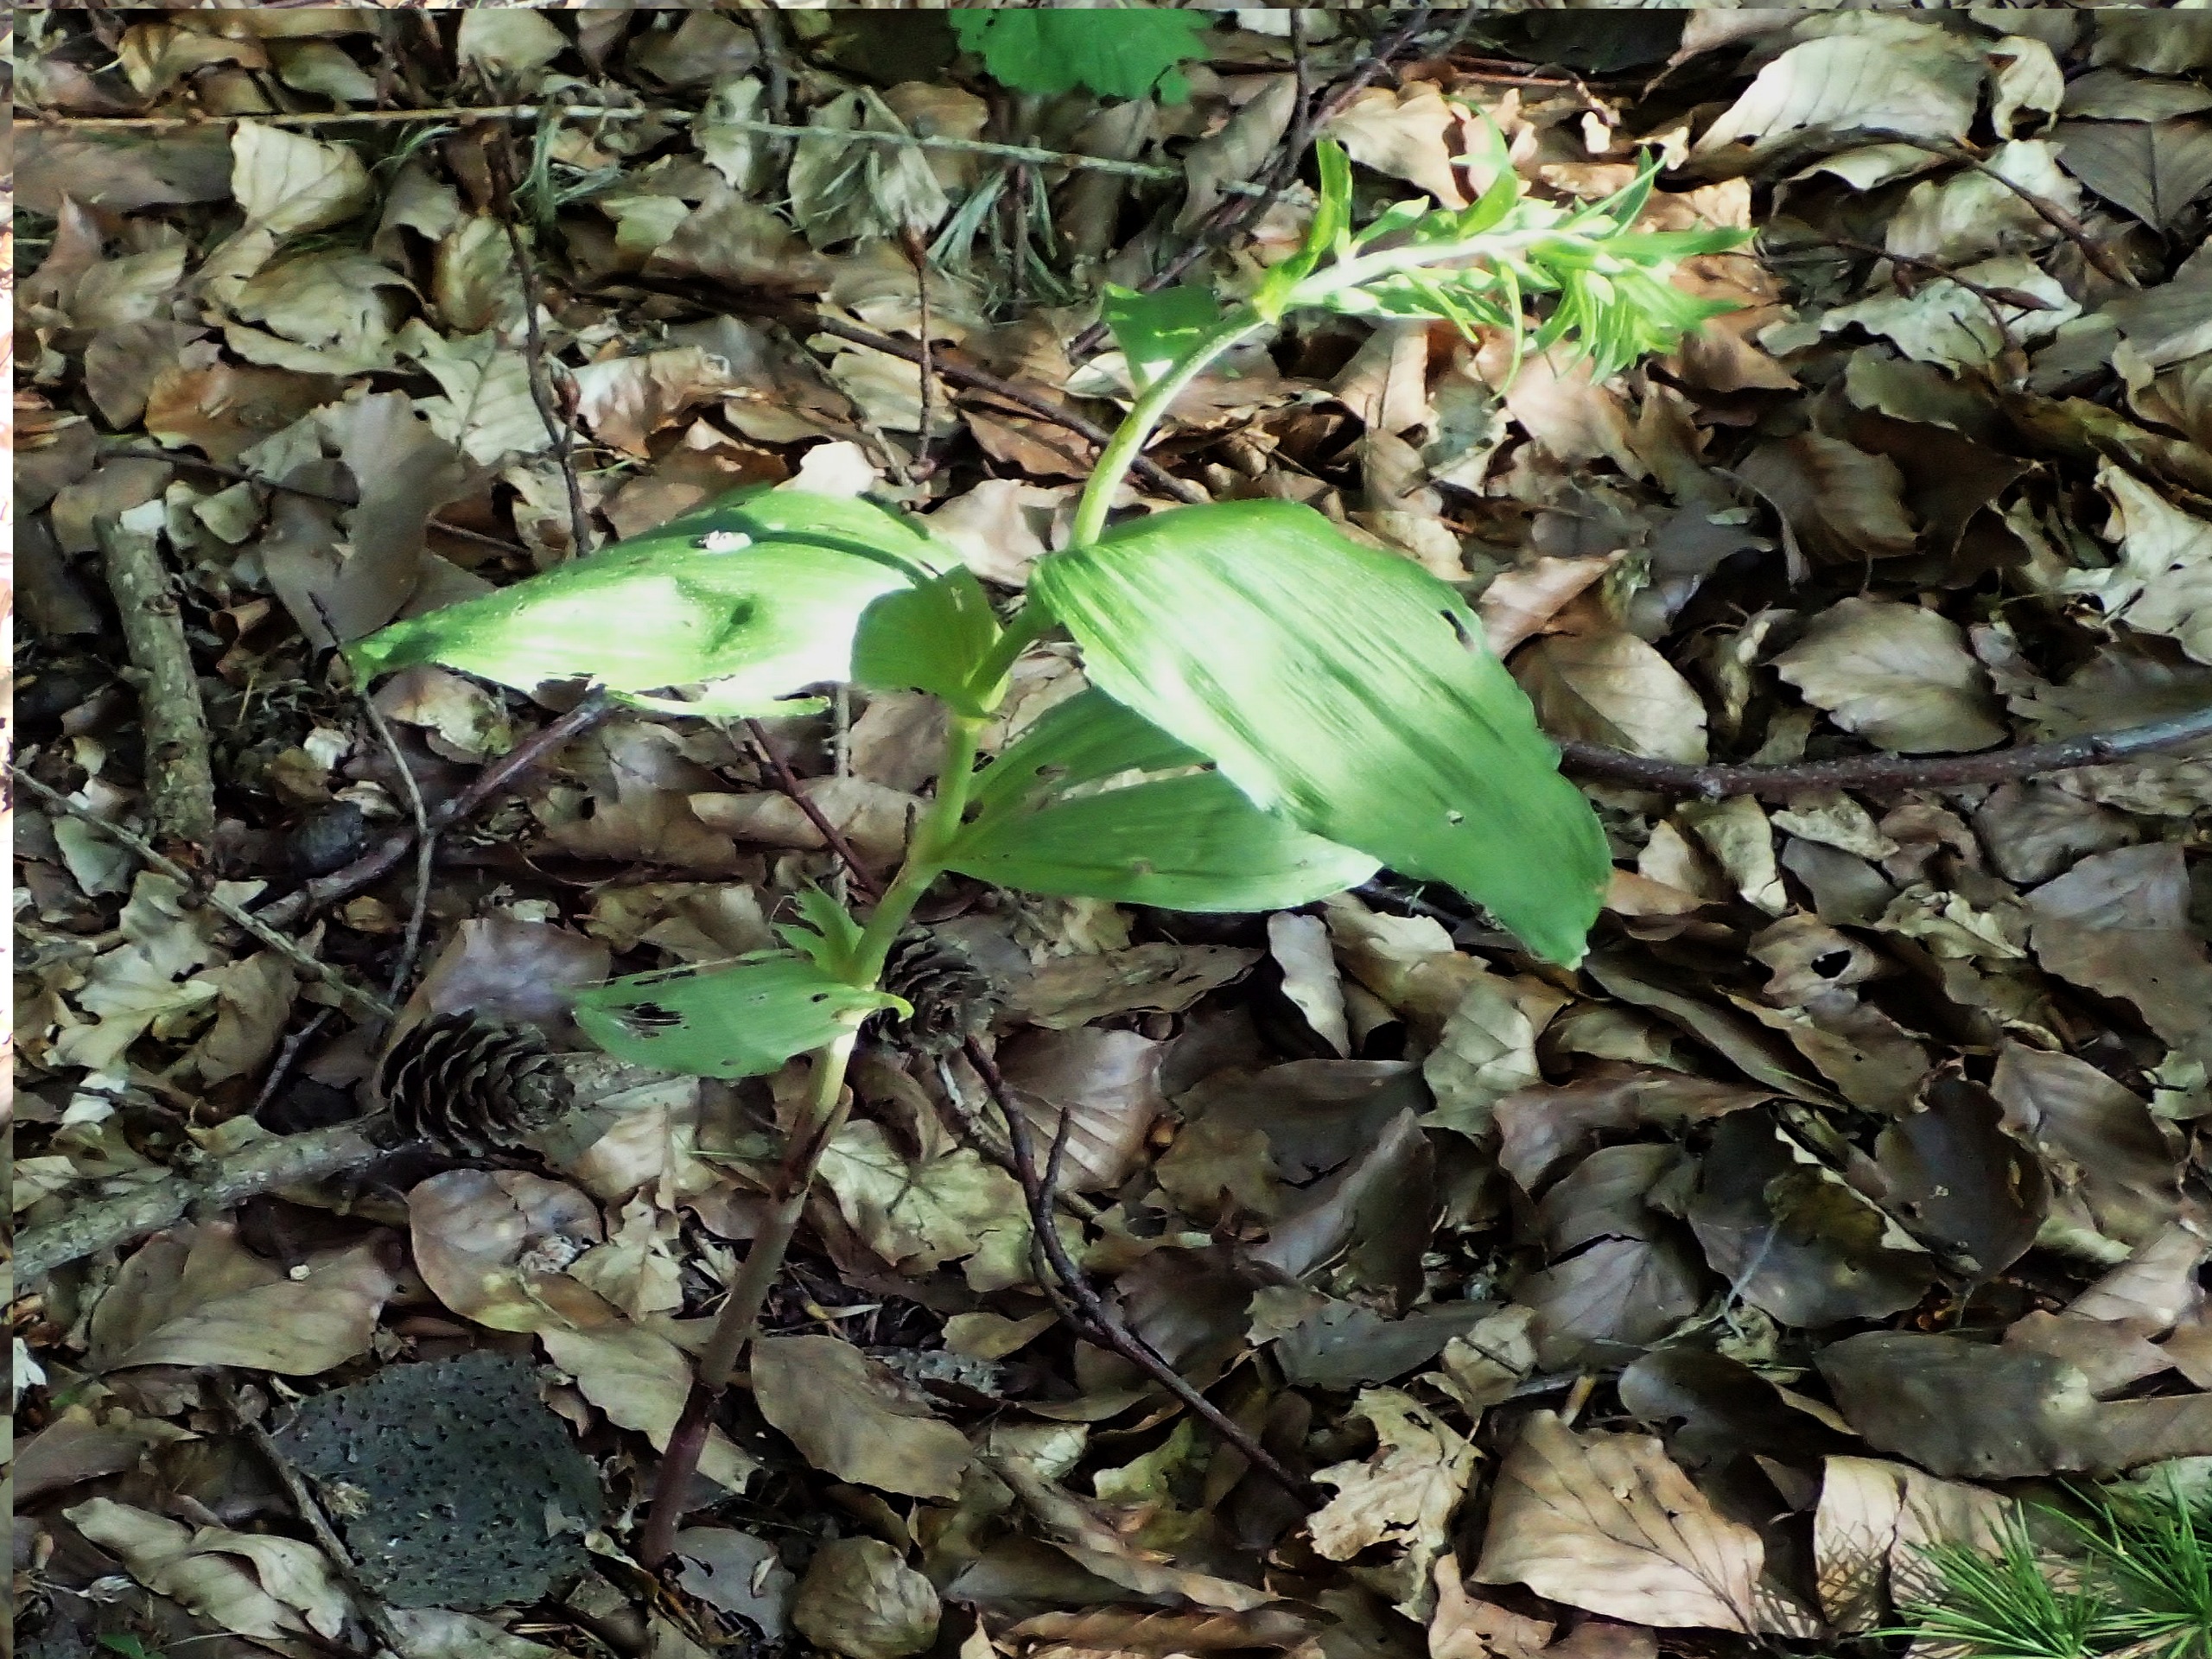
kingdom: Plantae
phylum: Tracheophyta
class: Liliopsida
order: Asparagales
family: Orchidaceae
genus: Epipactis
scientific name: Epipactis helleborine
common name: Skov-hullæbe
